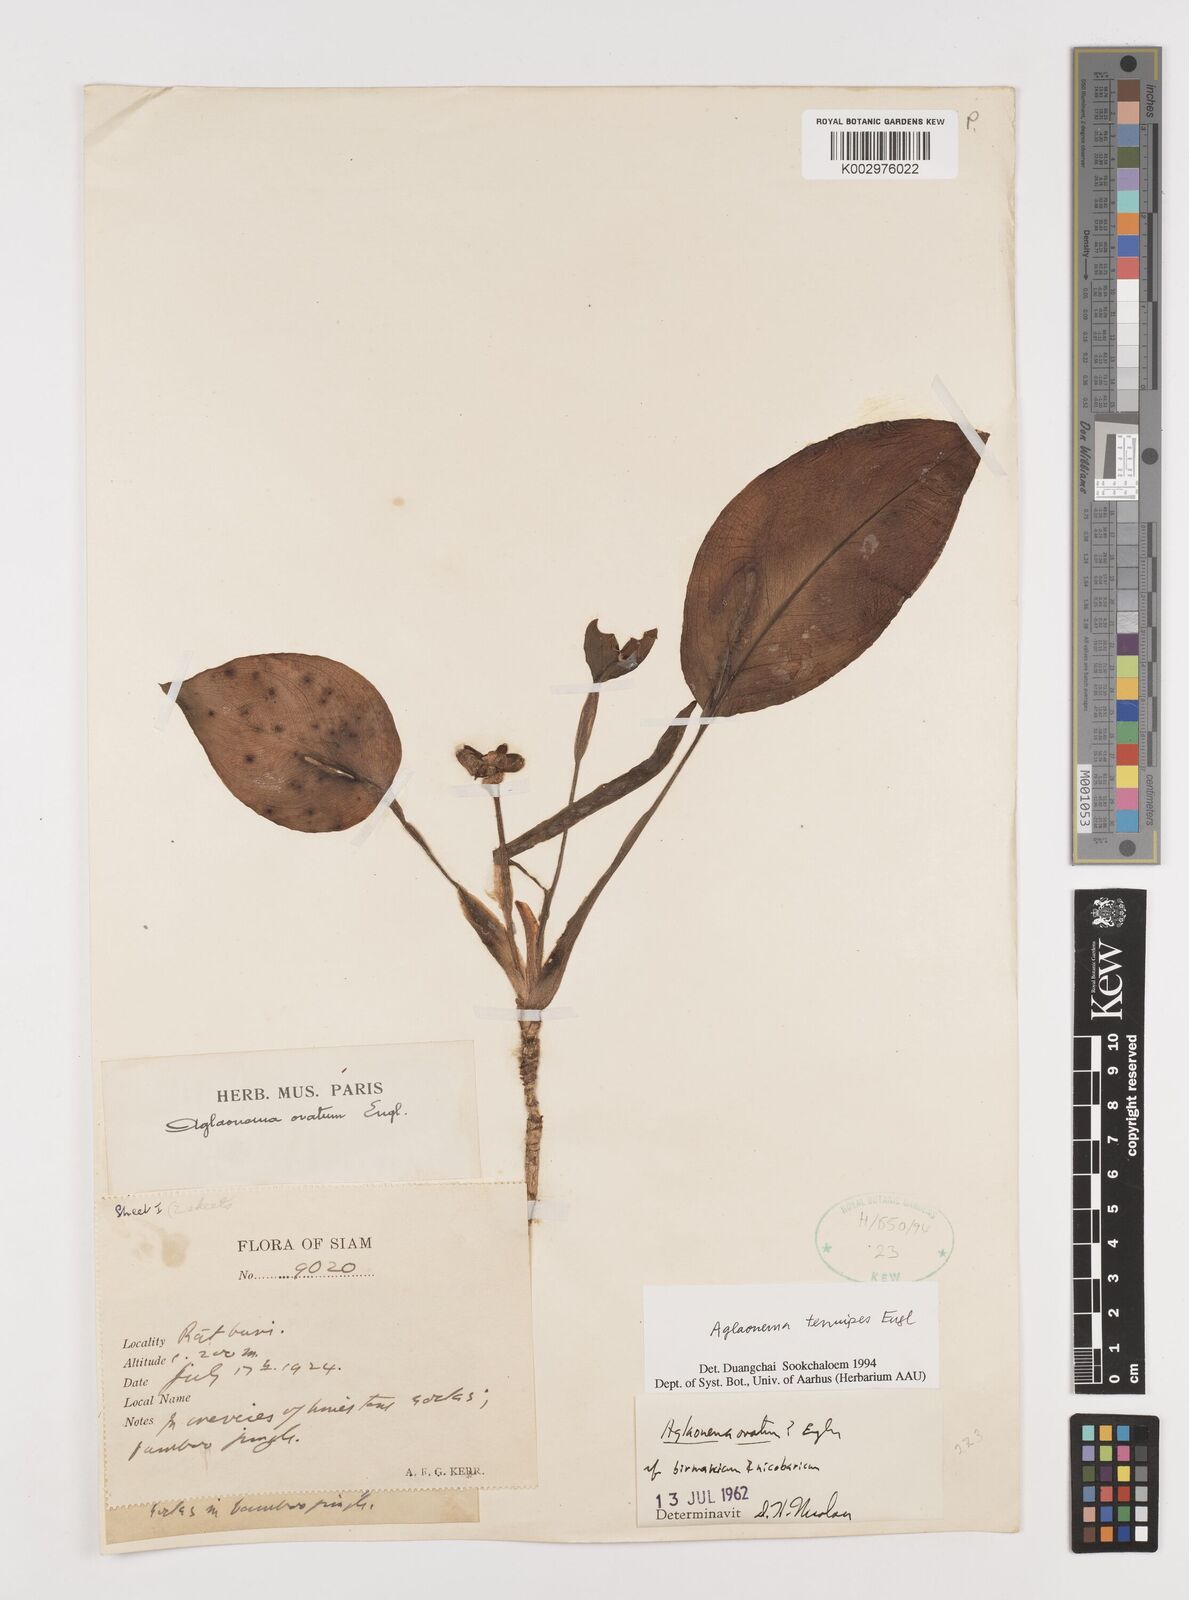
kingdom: Plantae
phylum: Tracheophyta
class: Liliopsida
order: Alismatales
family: Araceae
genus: Aglaonema
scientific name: Aglaonema simplex
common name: Malayan-sword
